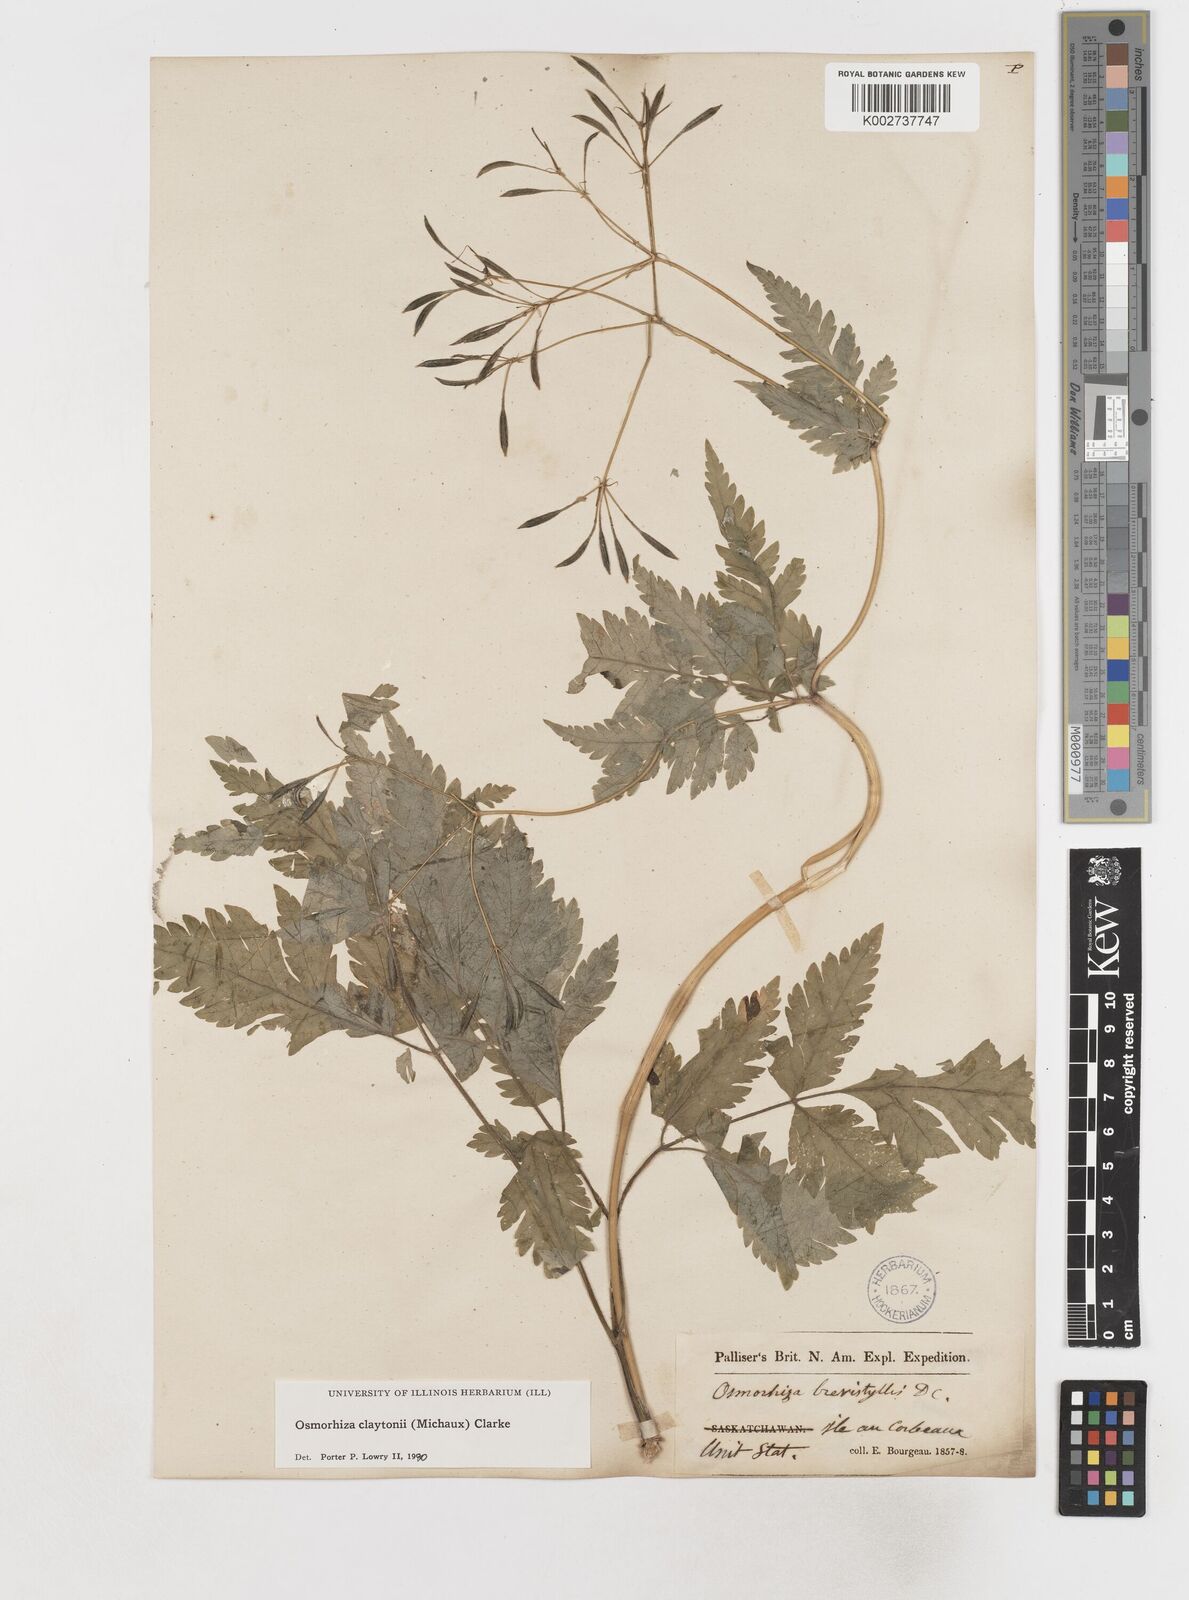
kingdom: Plantae
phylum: Tracheophyta
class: Magnoliopsida
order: Apiales
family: Apiaceae
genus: Osmorhiza
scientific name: Osmorhiza claytonii
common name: Hairy sweet cicely
